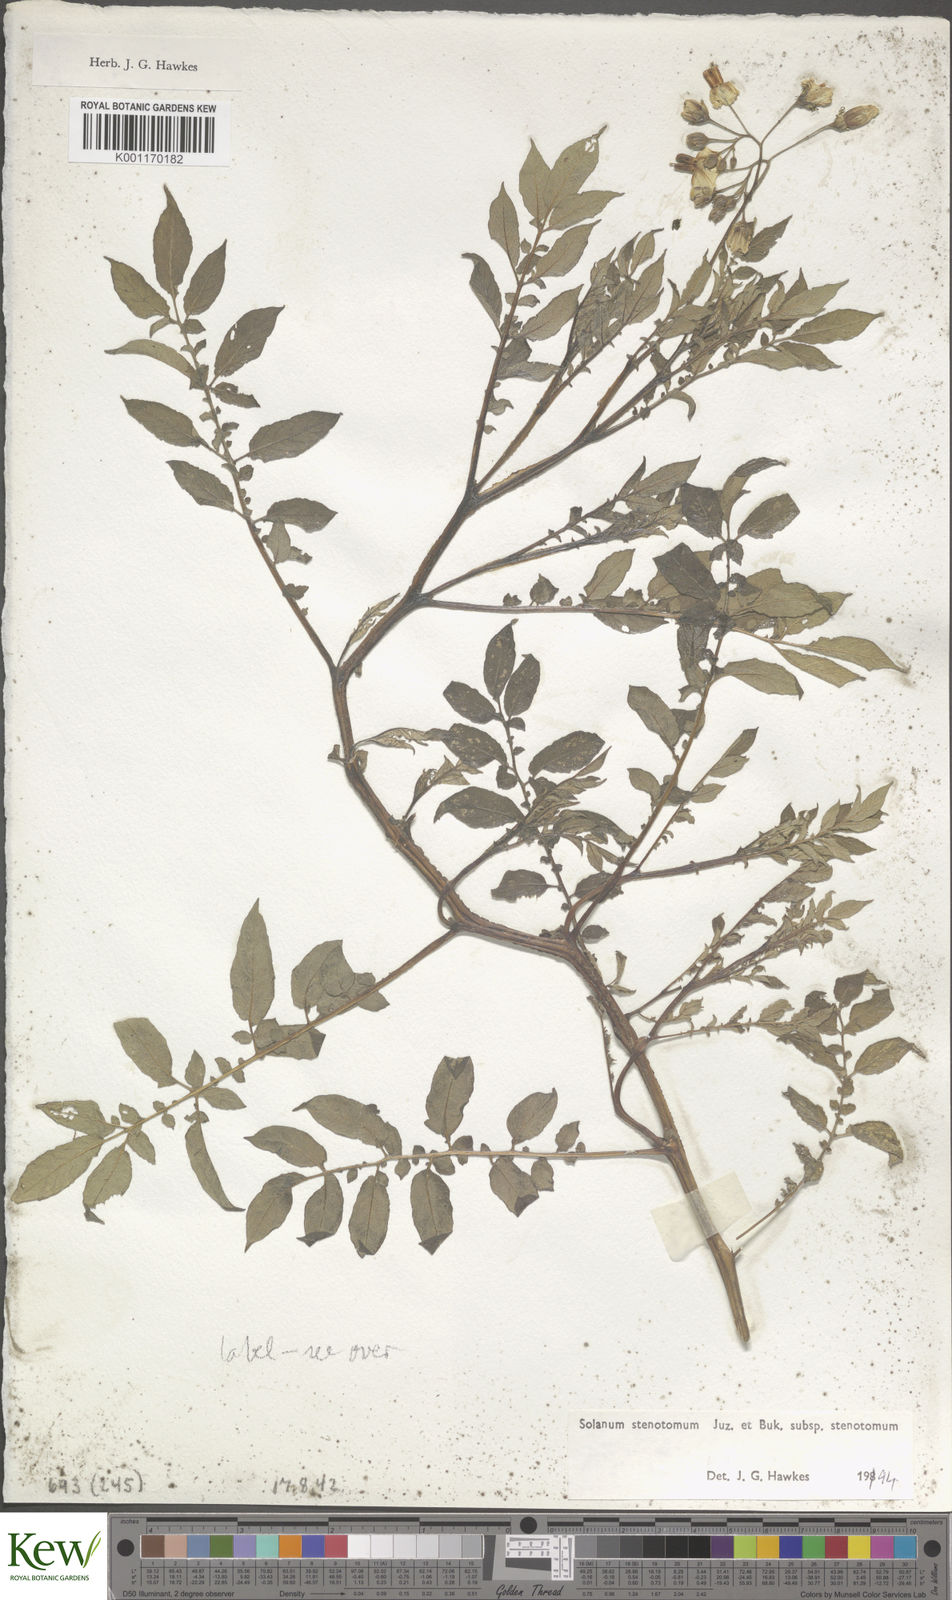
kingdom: Plantae
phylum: Tracheophyta
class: Magnoliopsida
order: Solanales
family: Solanaceae
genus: Solanum
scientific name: Solanum tuberosum
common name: Potato
